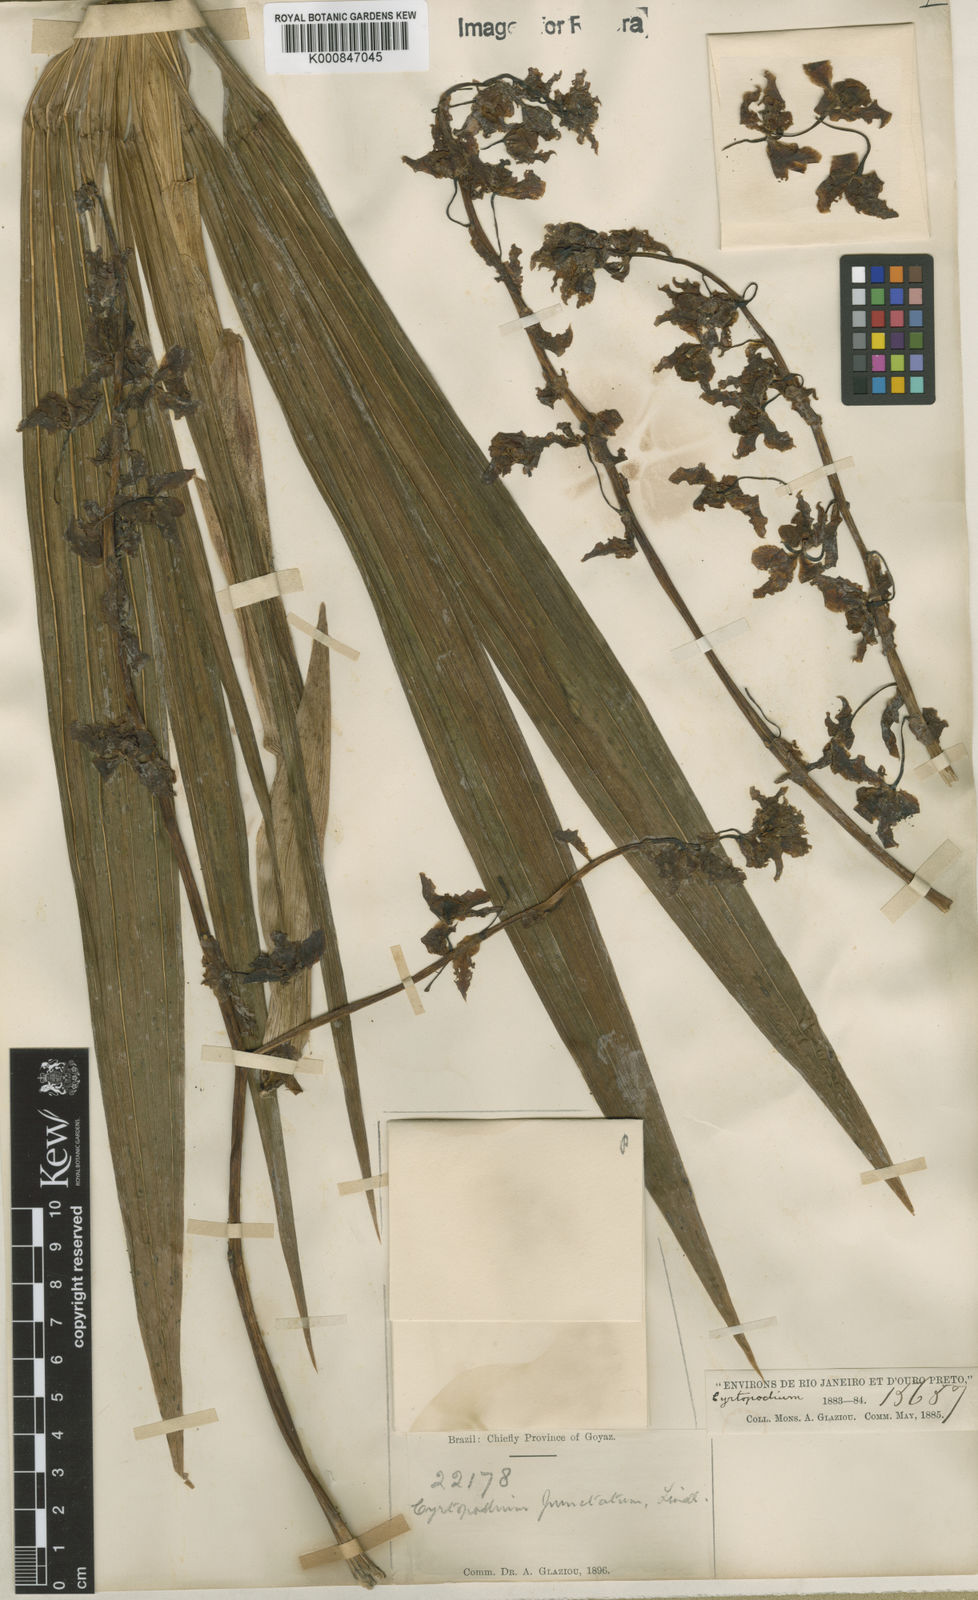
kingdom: Plantae
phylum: Tracheophyta
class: Liliopsida
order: Asparagales
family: Orchidaceae
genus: Cyrtopodium
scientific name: Cyrtopodium punctatum
